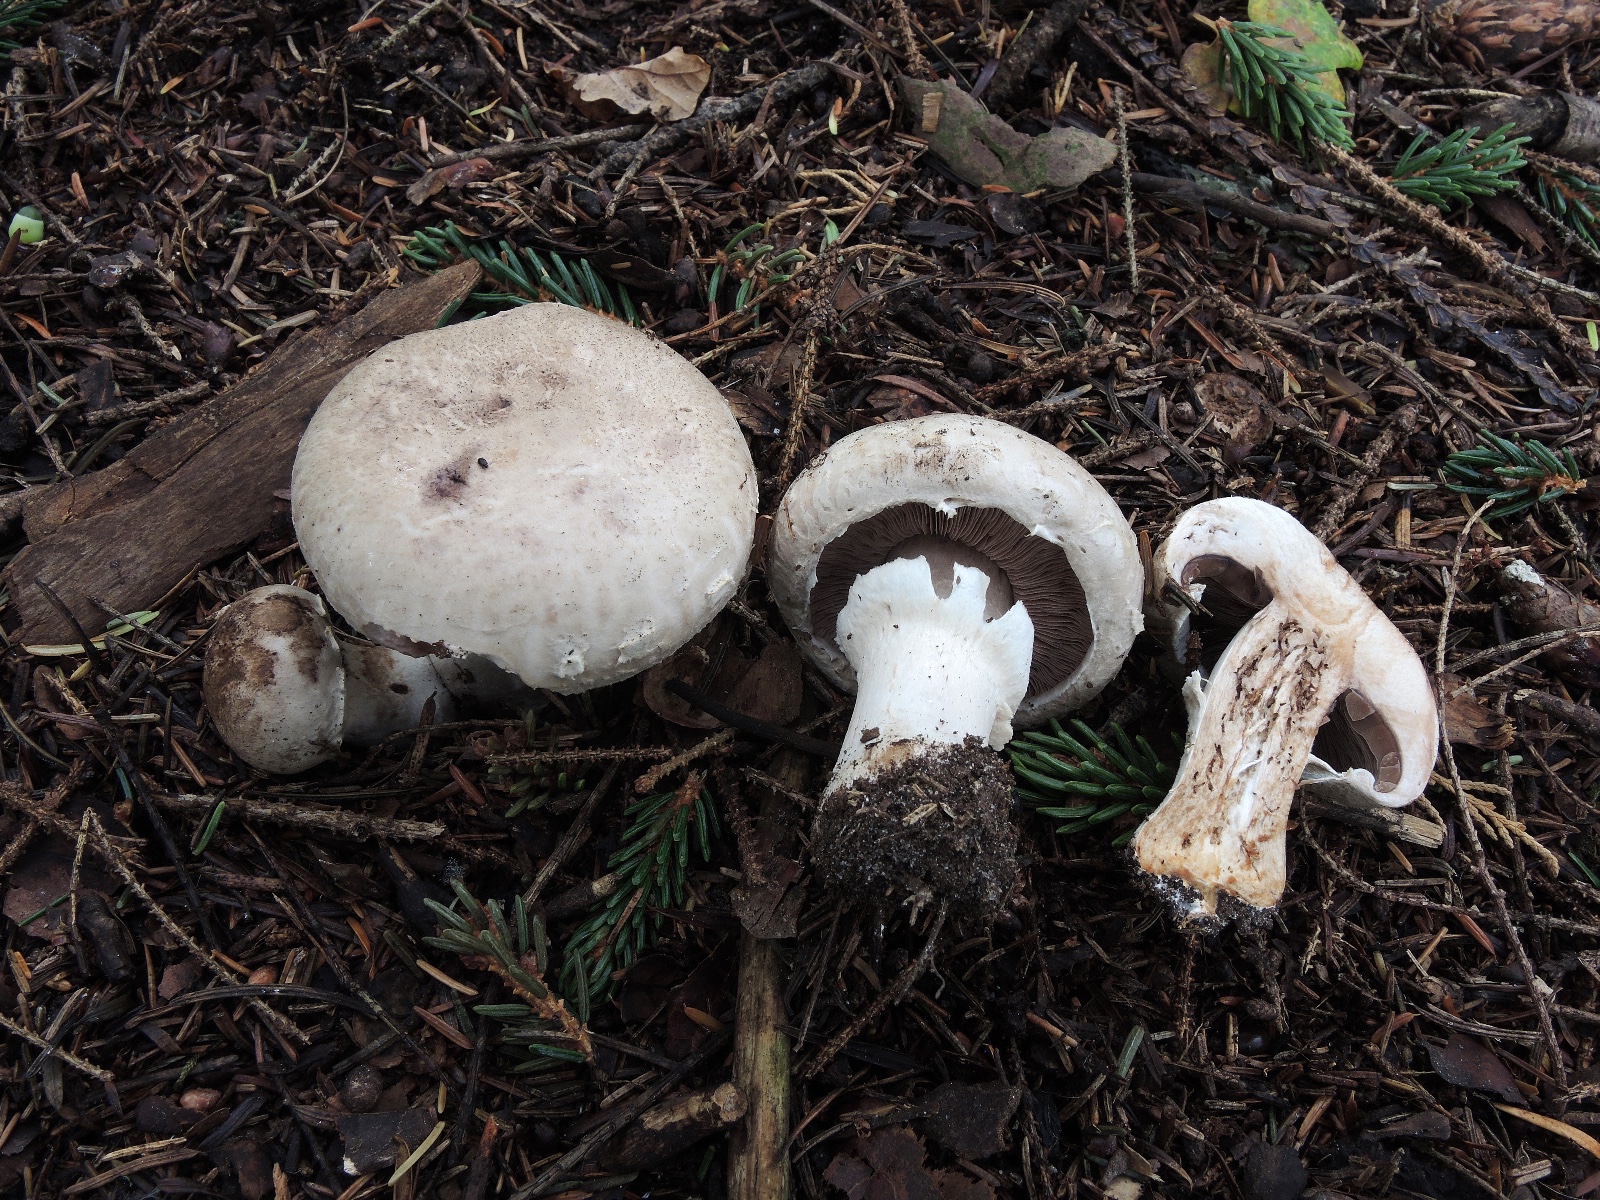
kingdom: Fungi
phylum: Basidiomycota
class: Agaricomycetes
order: Agaricales
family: Agaricaceae
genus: Agaricus
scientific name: Agaricus subfloccosus
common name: randskællet champignon
